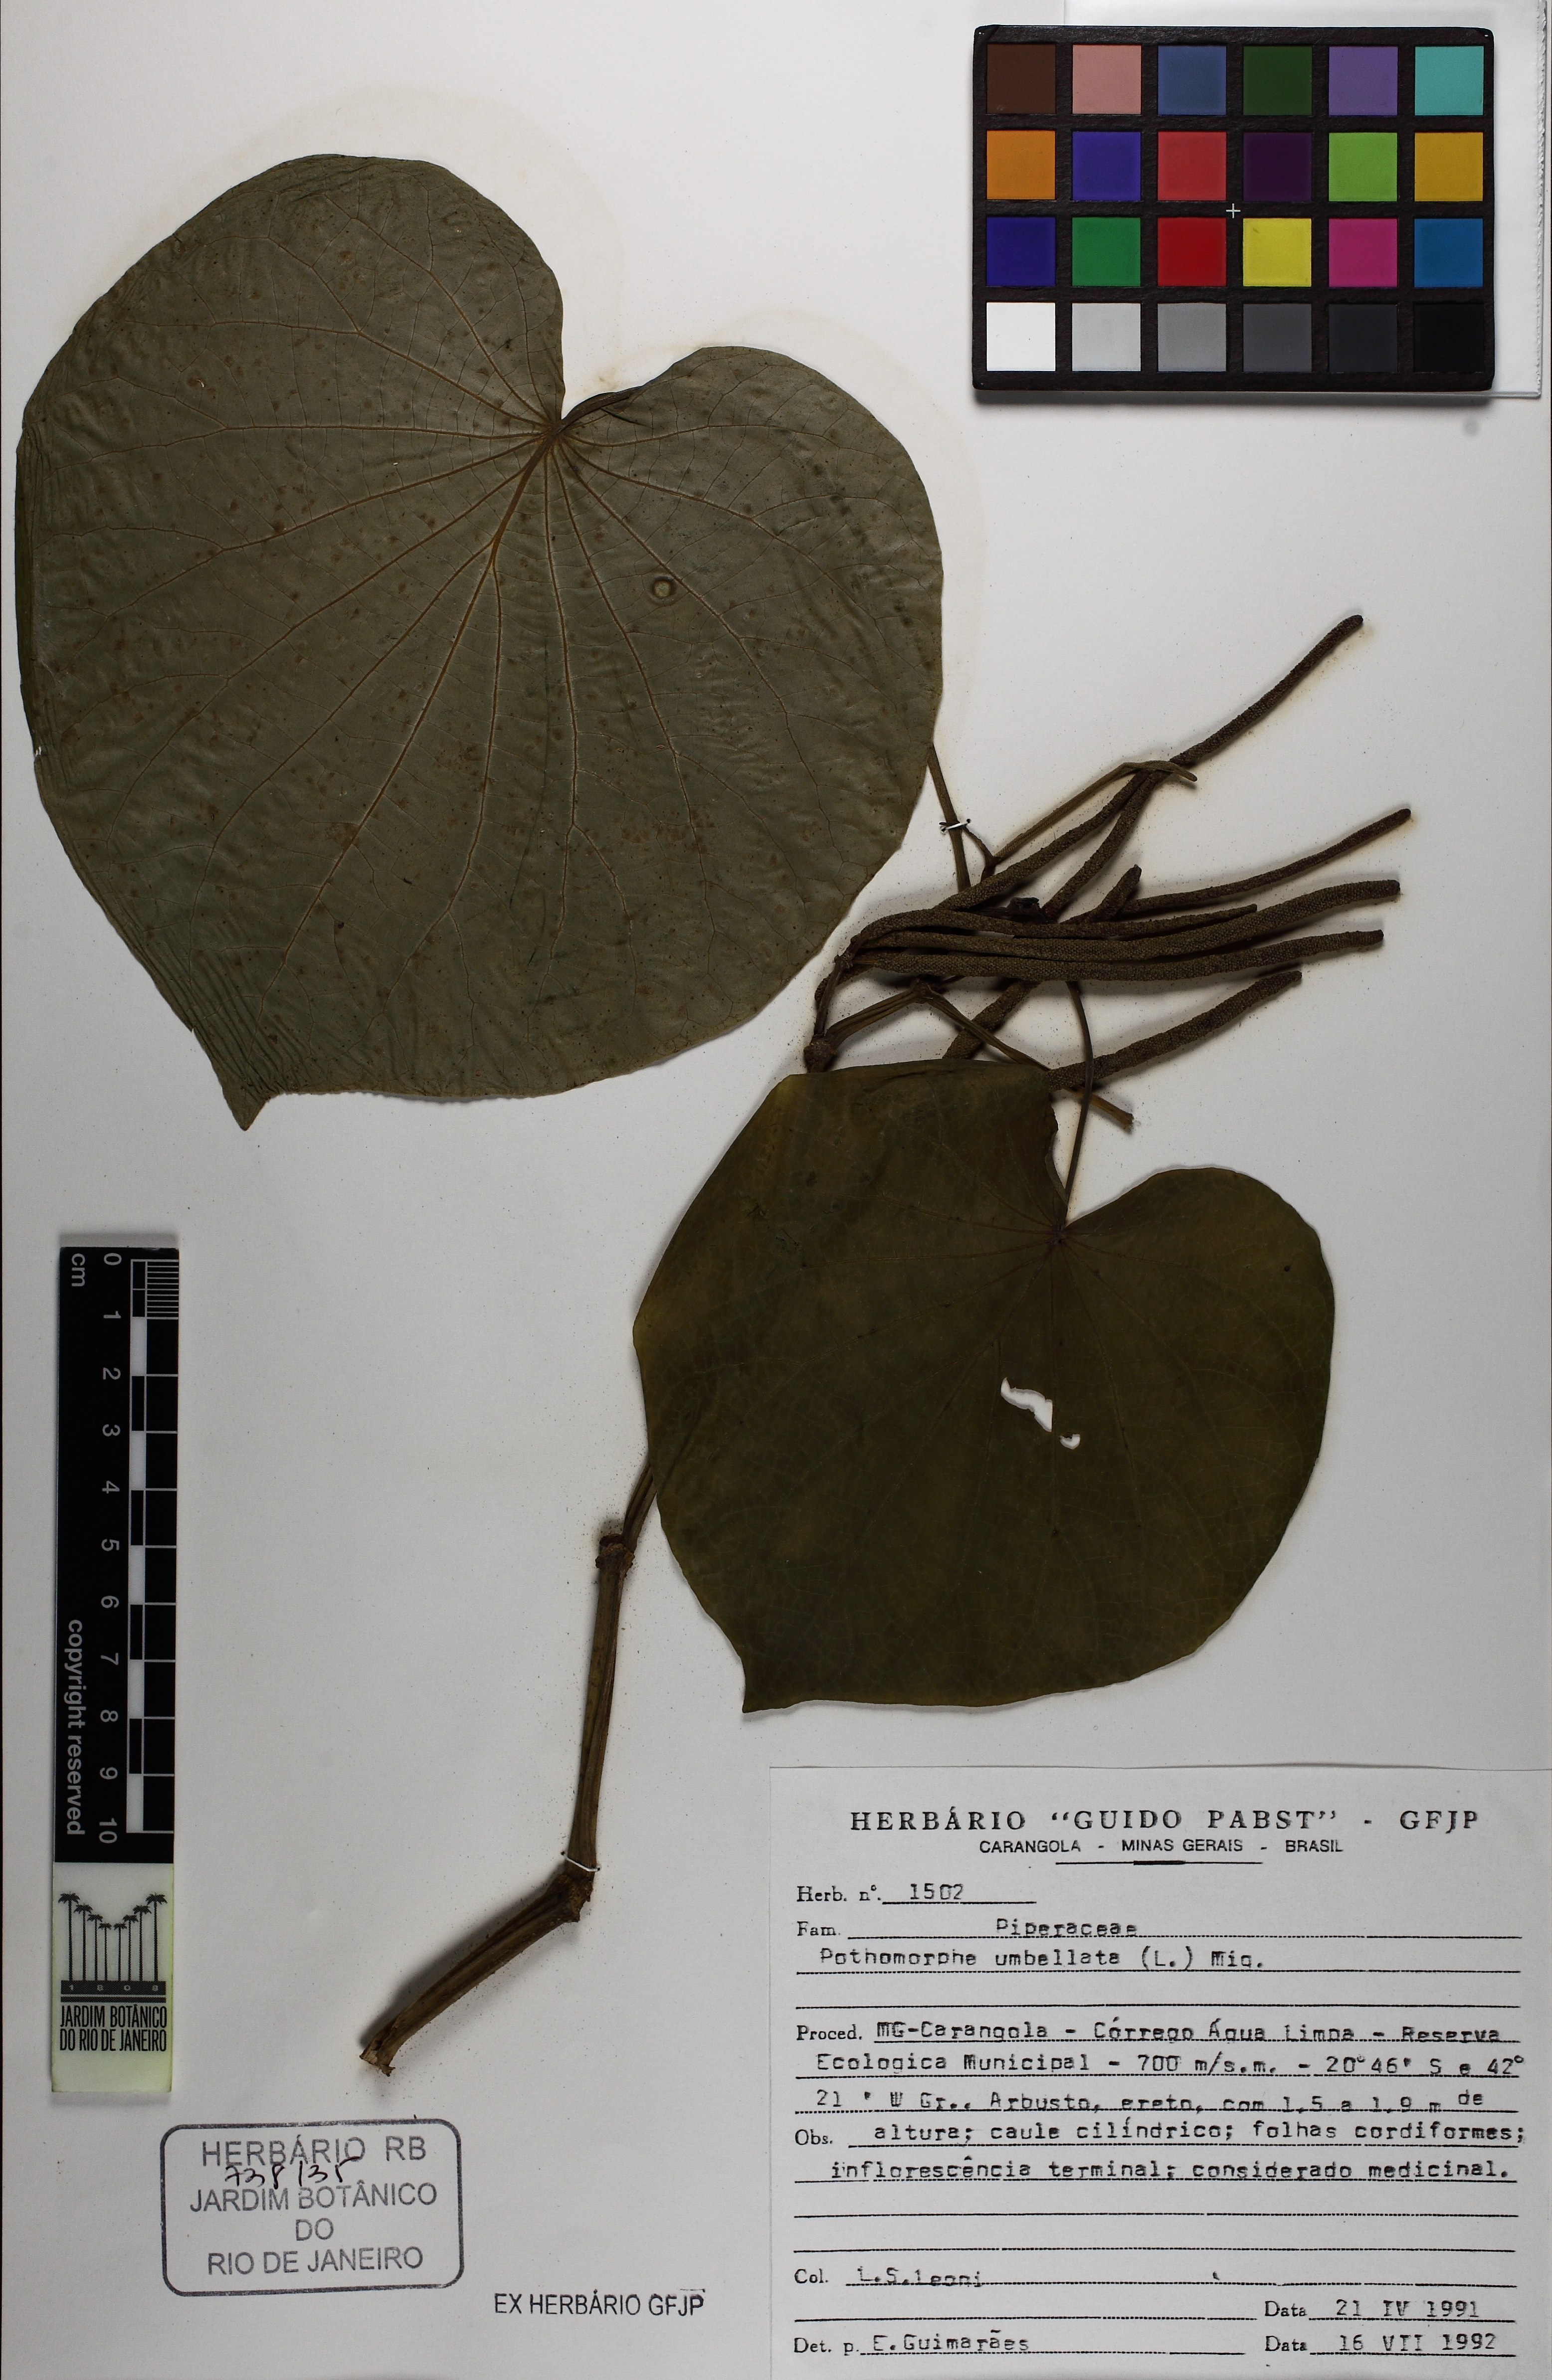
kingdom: Plantae
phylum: Tracheophyta
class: Magnoliopsida
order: Piperales
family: Piperaceae
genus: Piper
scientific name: Piper umbellatum
